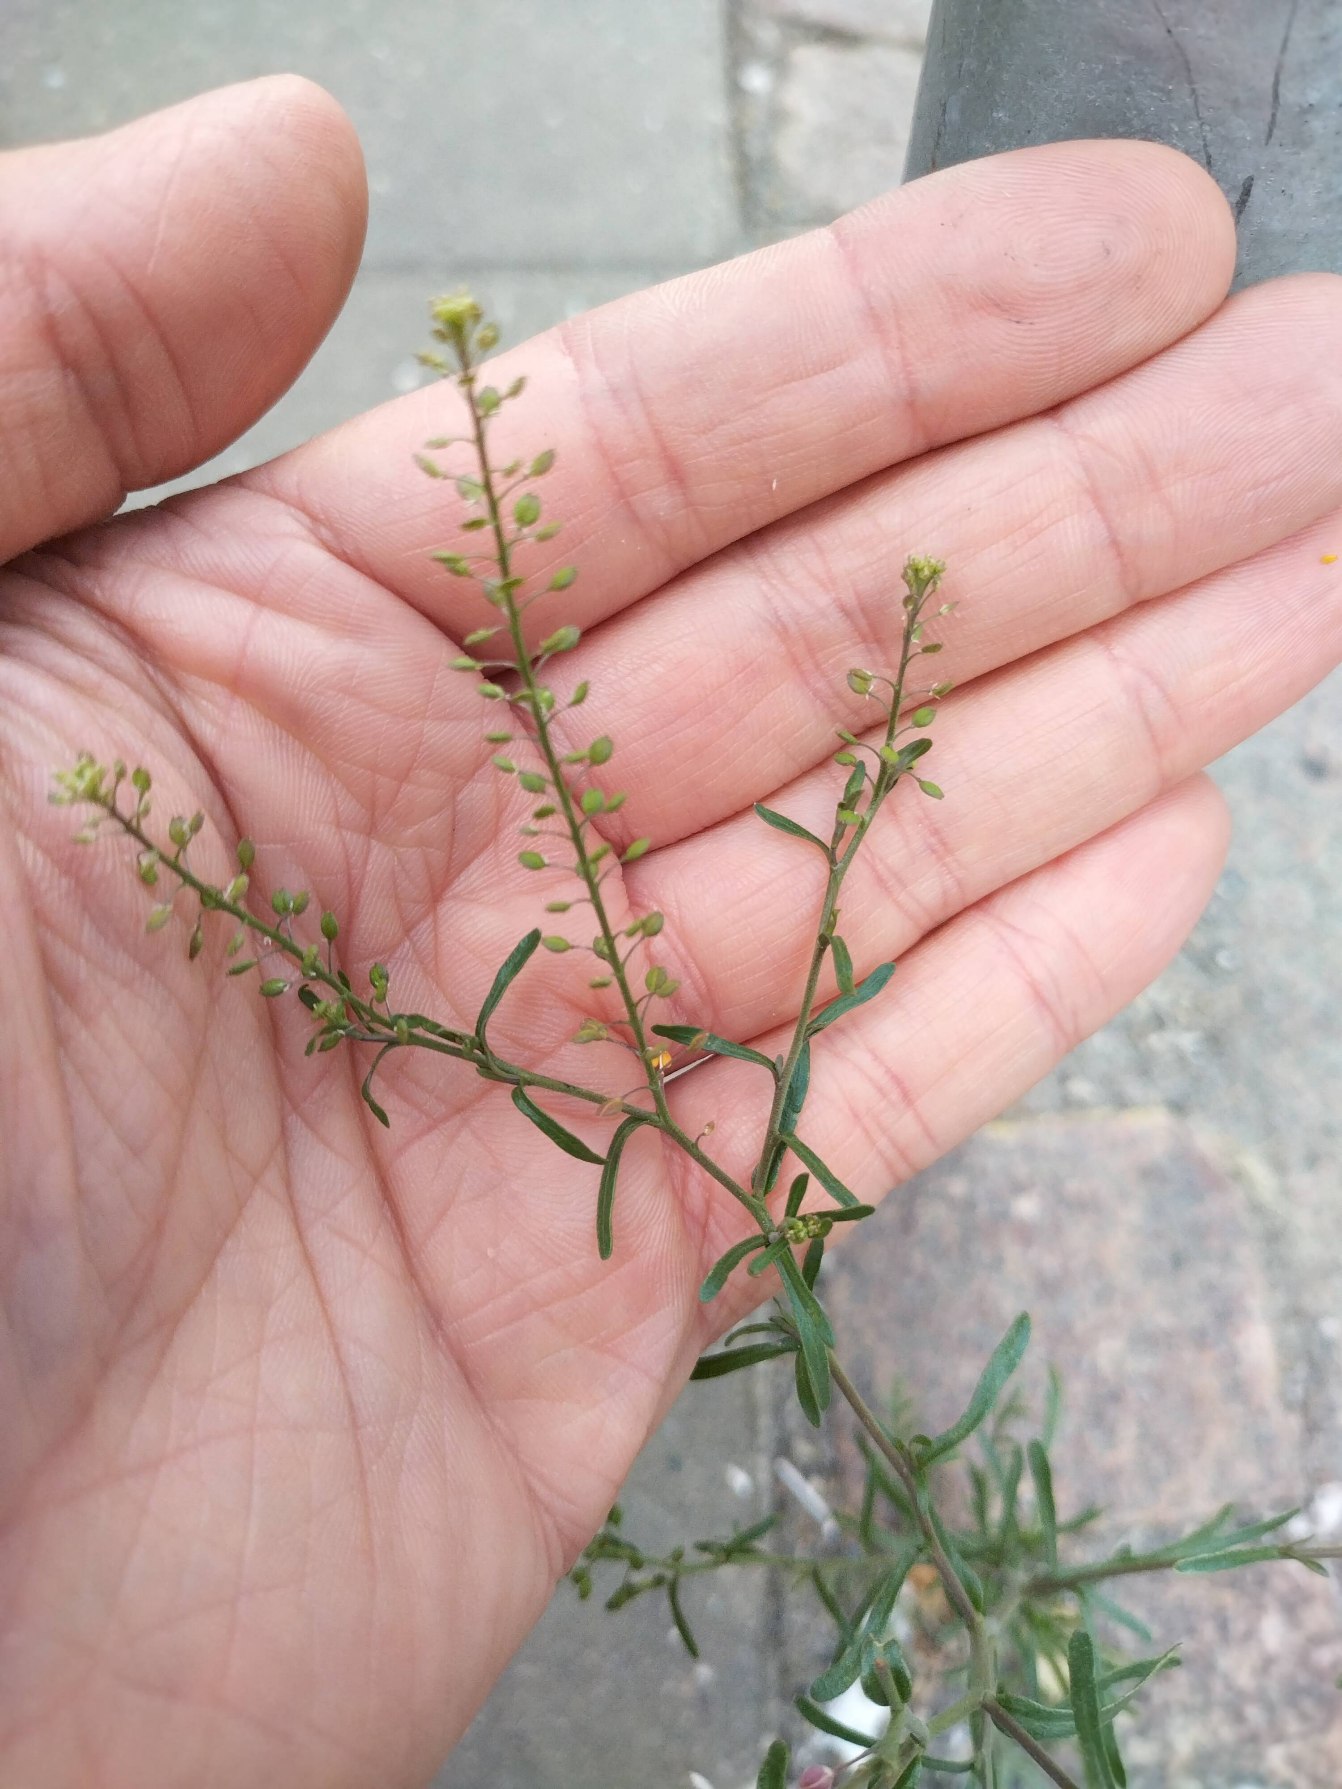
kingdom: Plantae
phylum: Tracheophyta
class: Magnoliopsida
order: Brassicales
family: Brassicaceae
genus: Lepidium
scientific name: Lepidium ruderale
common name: Stinkende karse
